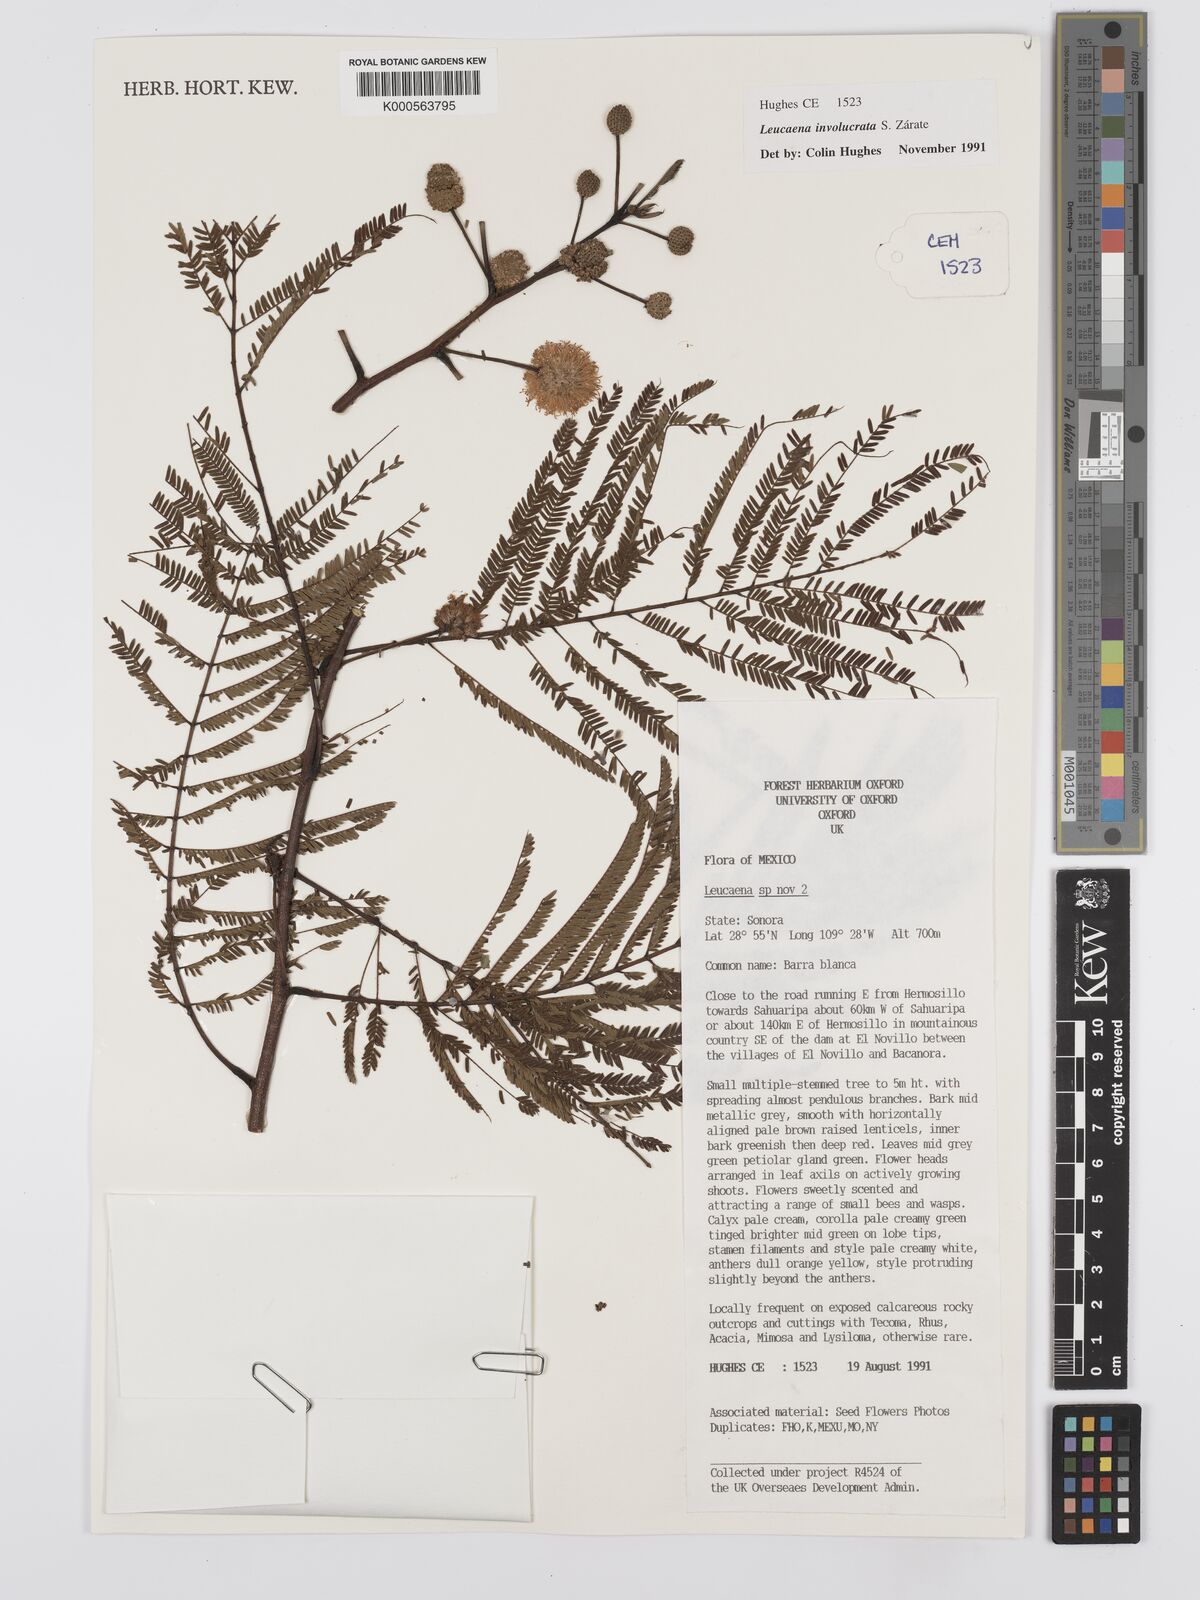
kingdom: Plantae
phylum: Tracheophyta
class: Magnoliopsida
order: Fabales
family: Fabaceae
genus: Leucaena
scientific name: Leucaena
